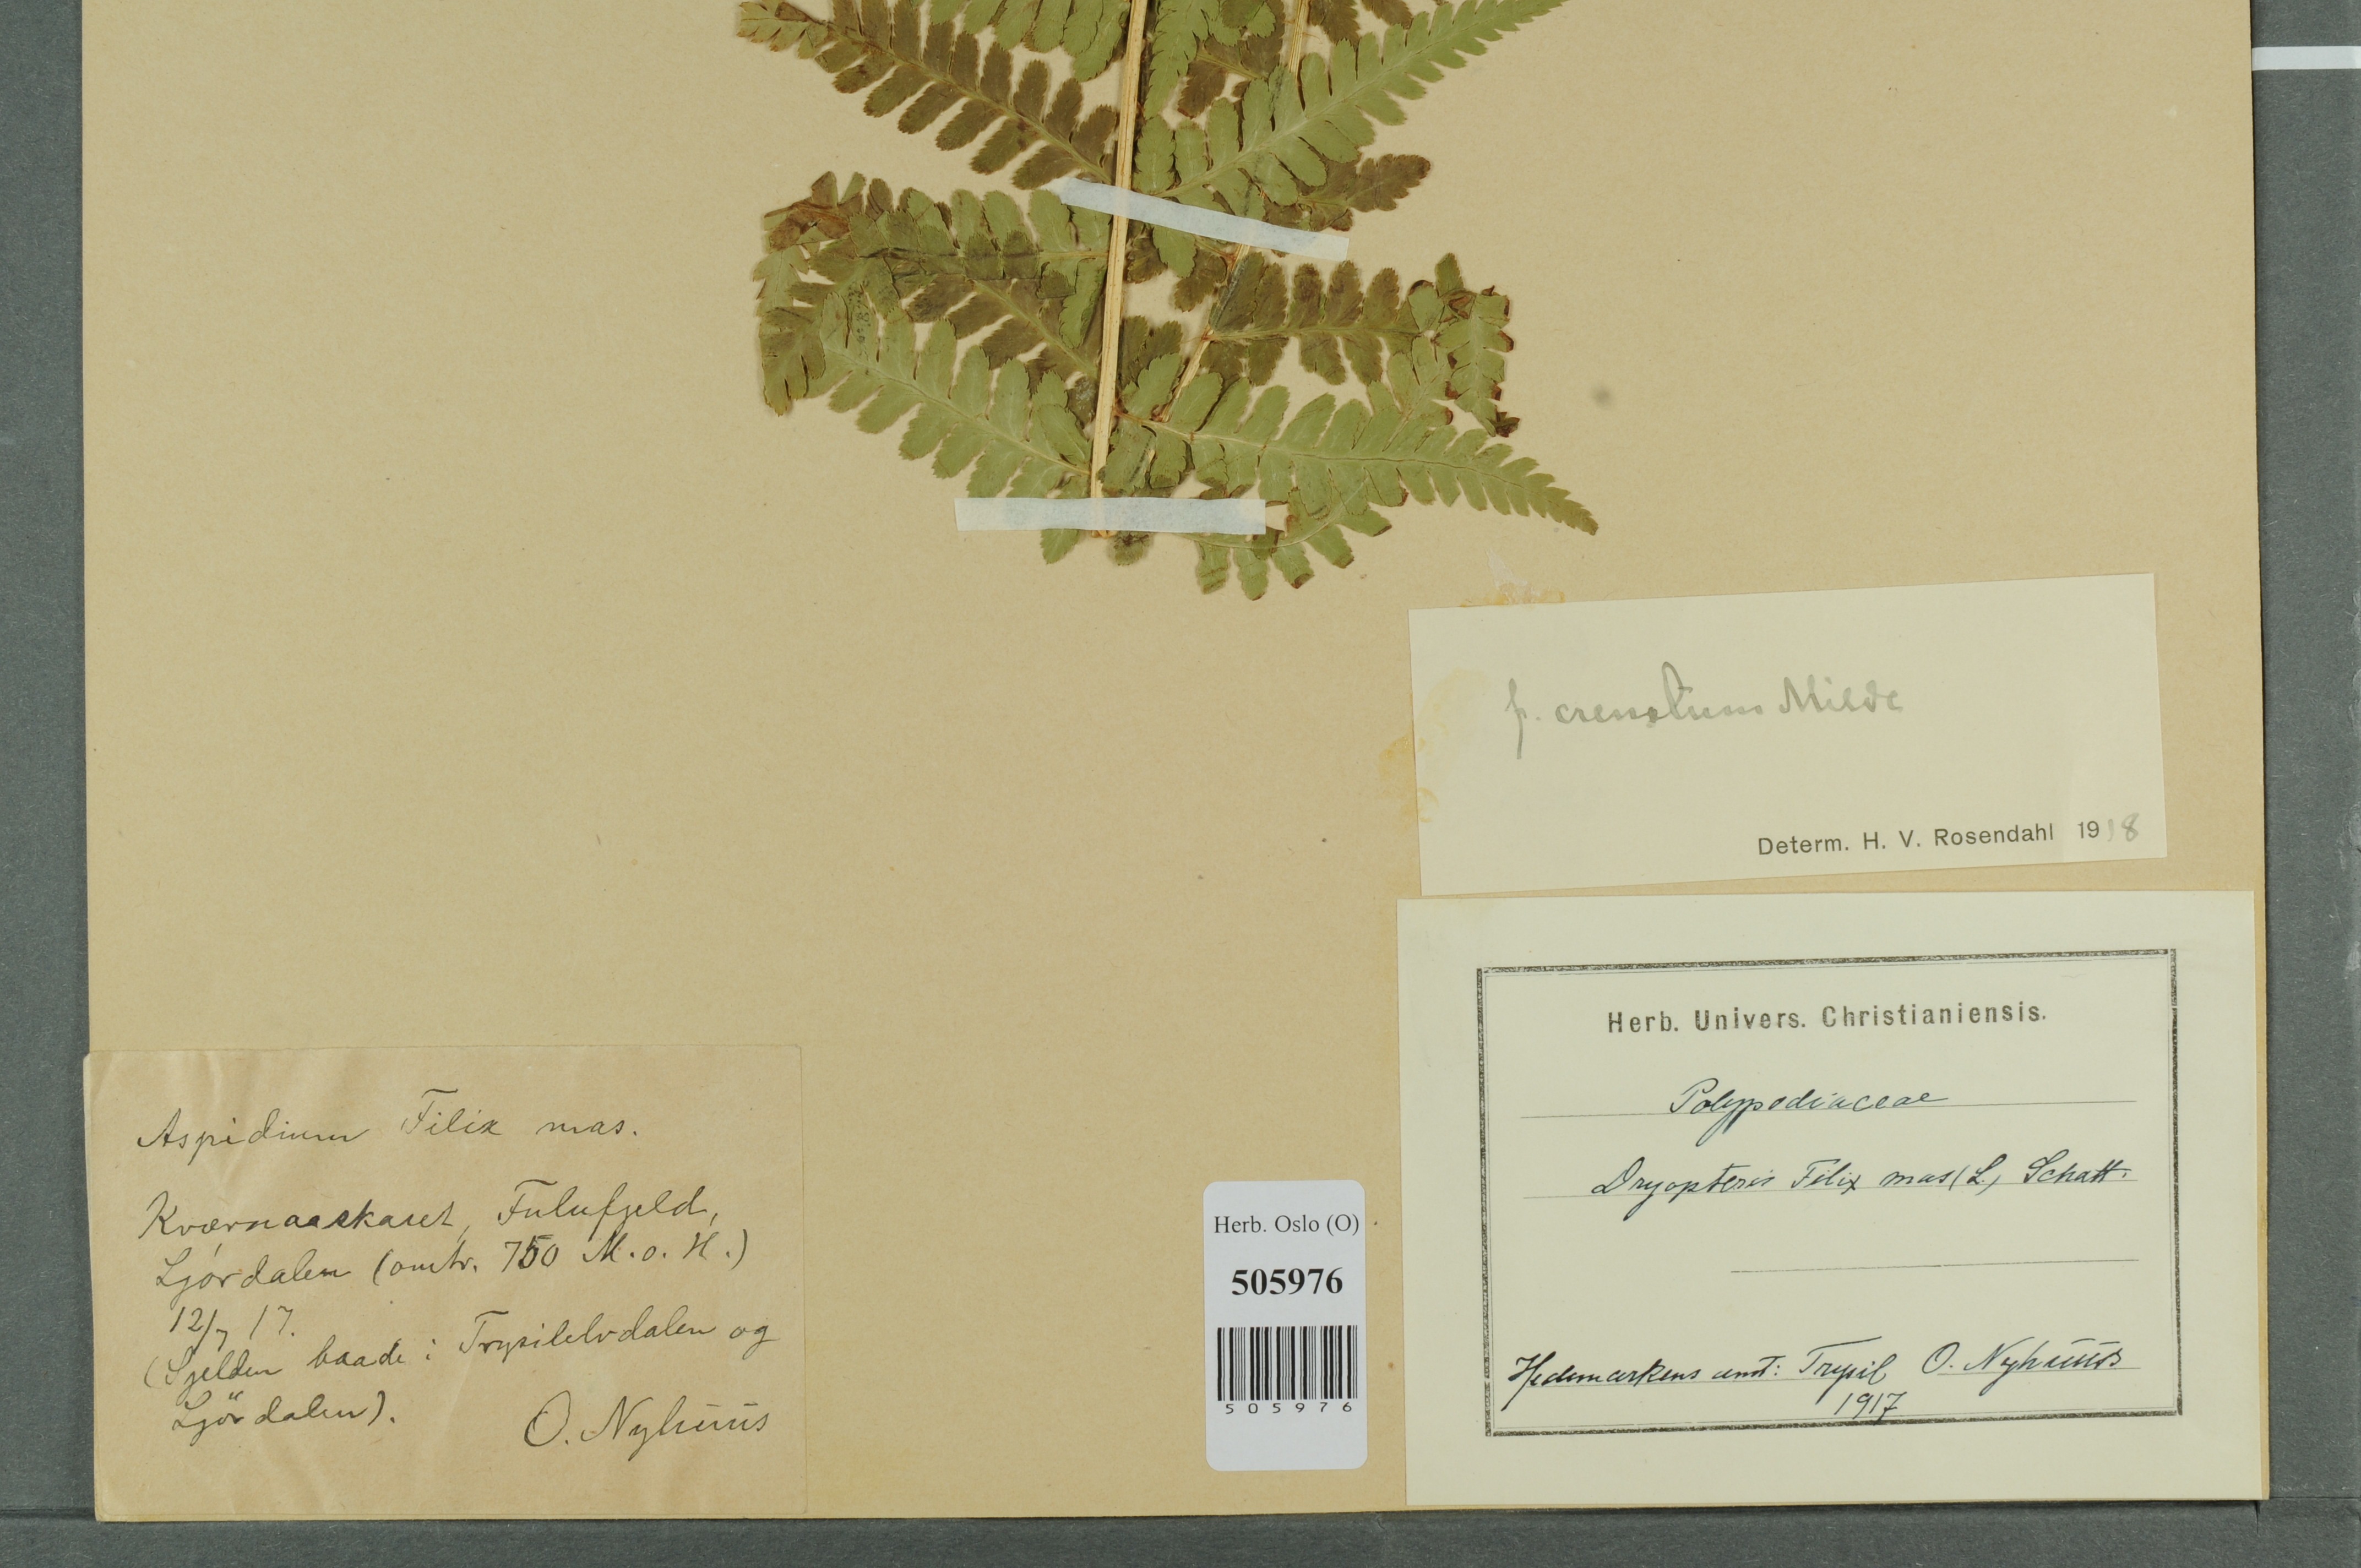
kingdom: Plantae
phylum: Tracheophyta
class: Polypodiopsida
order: Polypodiales
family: Dryopteridaceae
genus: Dryopteris
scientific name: Dryopteris filix-mas
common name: Male fern
